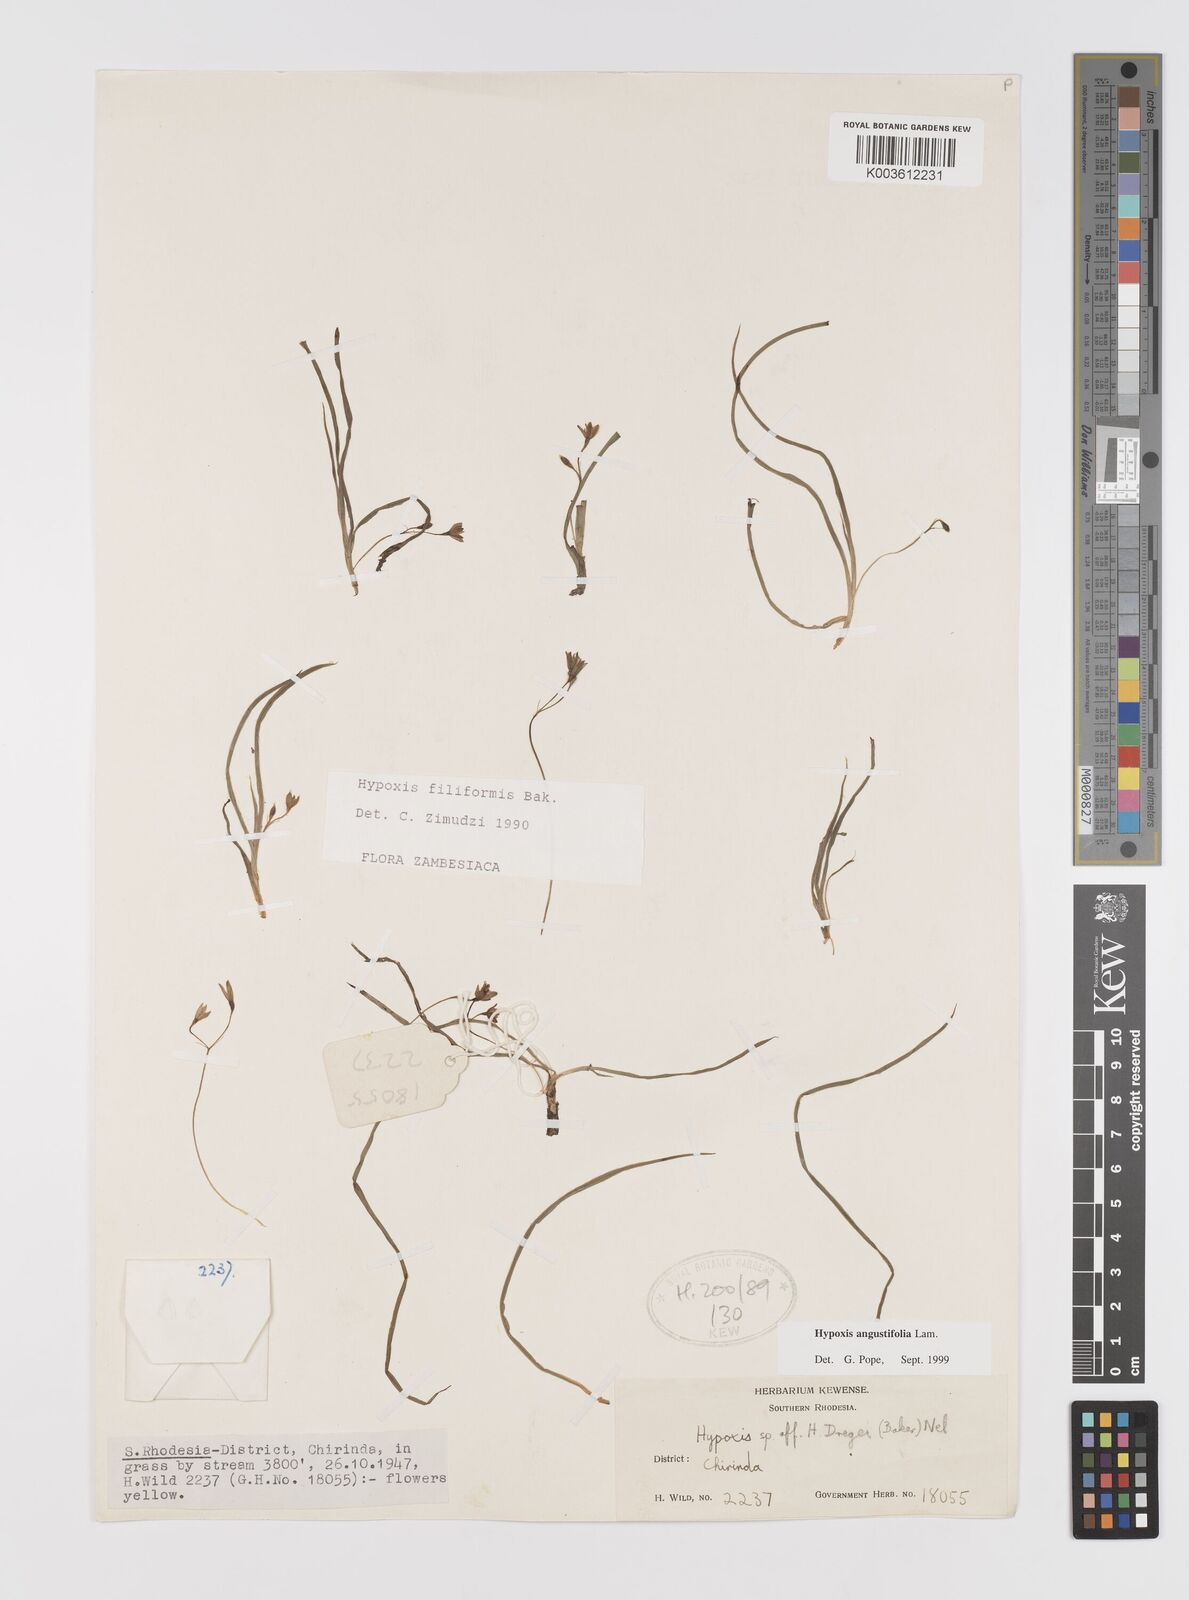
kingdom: Plantae
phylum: Tracheophyta
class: Liliopsida
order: Asparagales
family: Hypoxidaceae
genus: Hypoxis
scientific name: Hypoxis angustifolia
